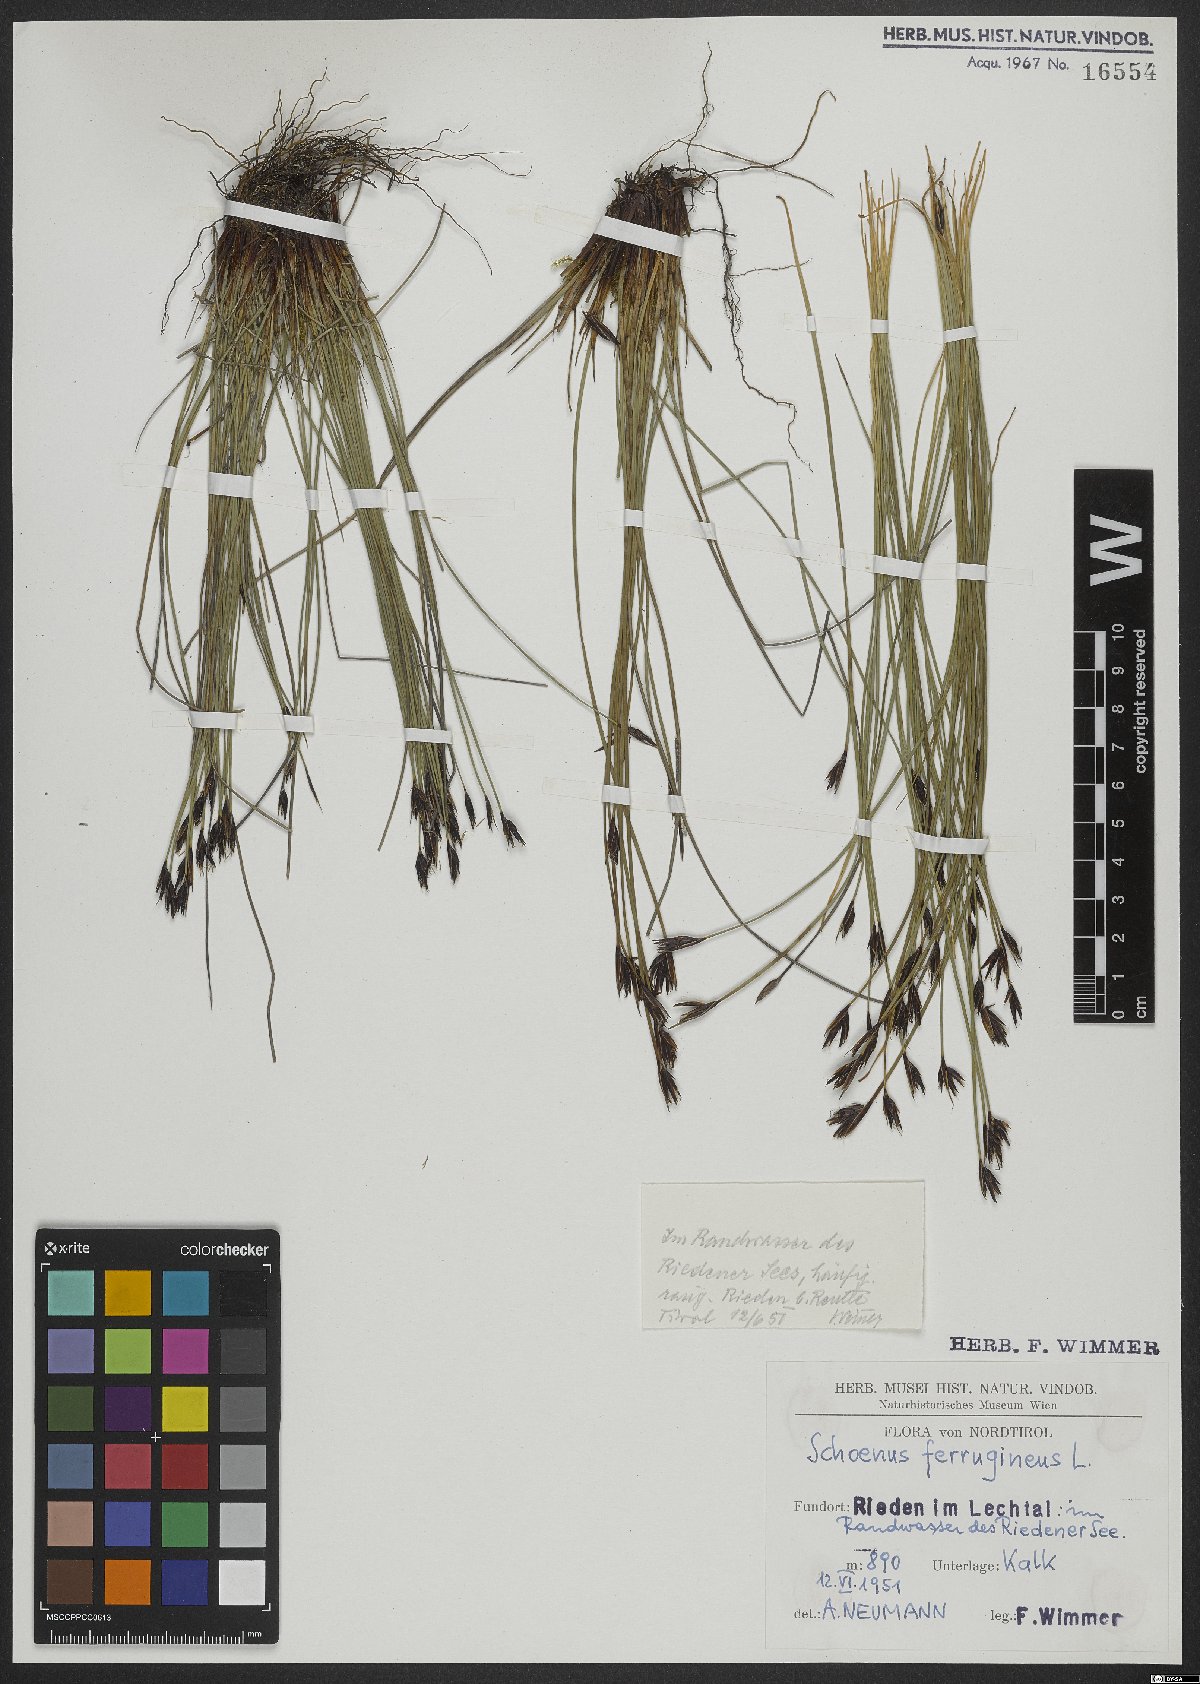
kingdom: Plantae
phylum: Tracheophyta
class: Liliopsida
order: Poales
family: Cyperaceae
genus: Schoenus
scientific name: Schoenus ferrugineus
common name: Brown bog-rush
